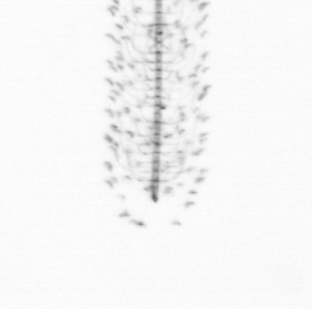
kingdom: Chromista
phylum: Ochrophyta
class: Bacillariophyceae
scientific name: Bacillariophyceae
